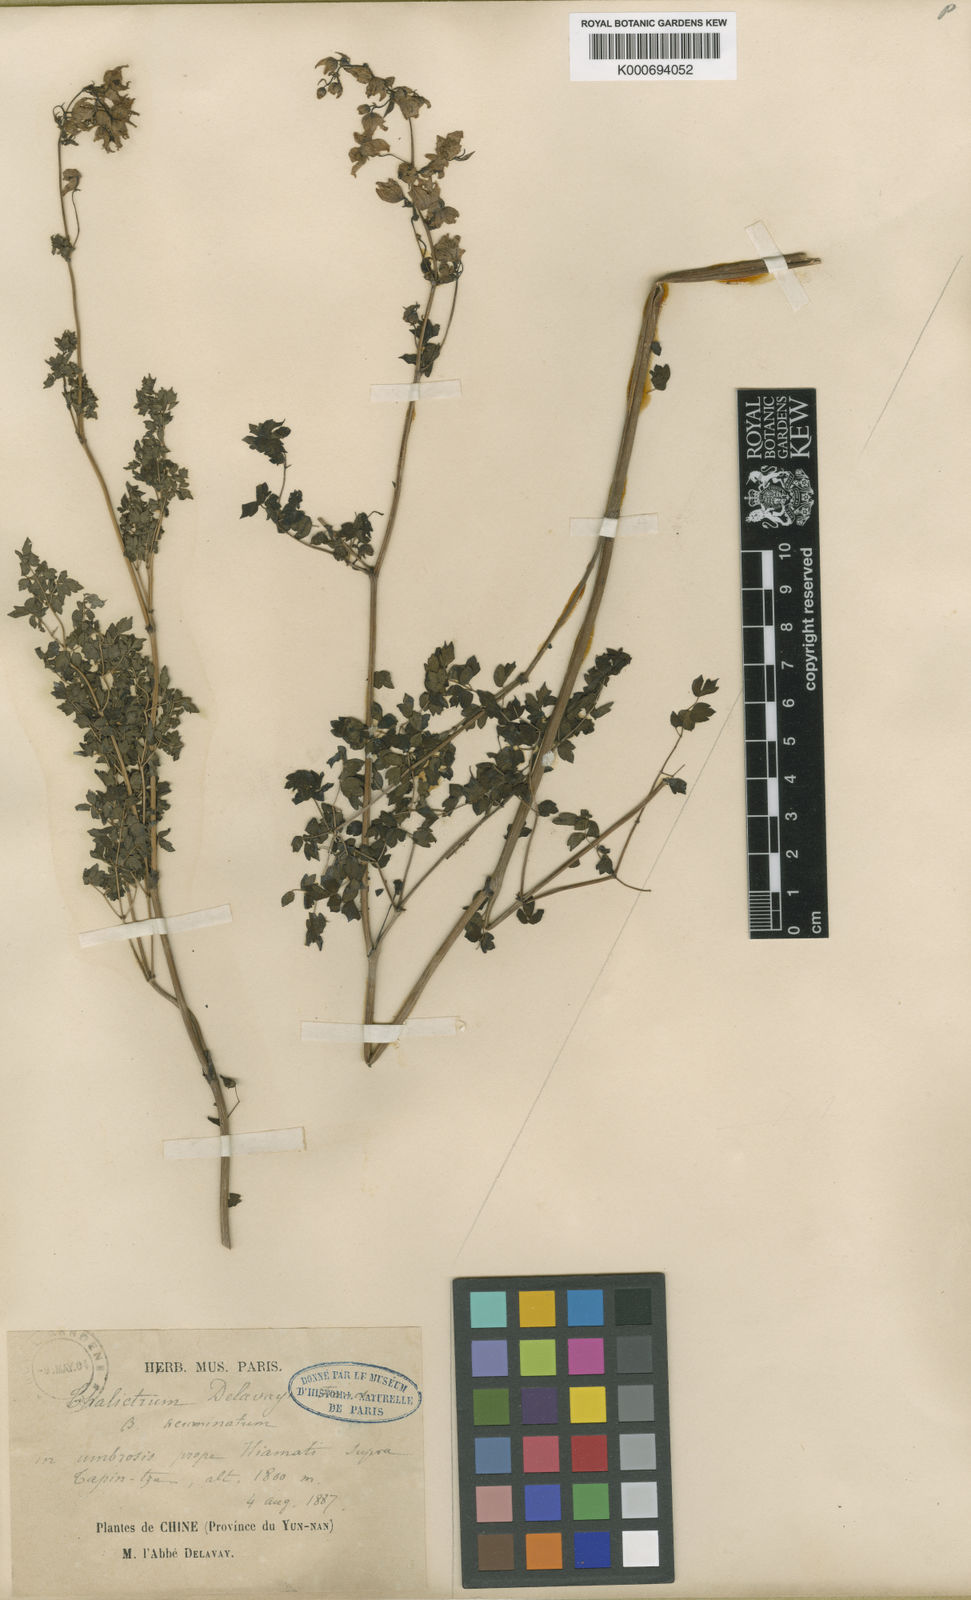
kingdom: Plantae
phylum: Tracheophyta
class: Magnoliopsida
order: Ranunculales
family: Ranunculaceae
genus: Thalictrum
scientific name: Thalictrum delavayi
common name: Chinese meadow-rue
